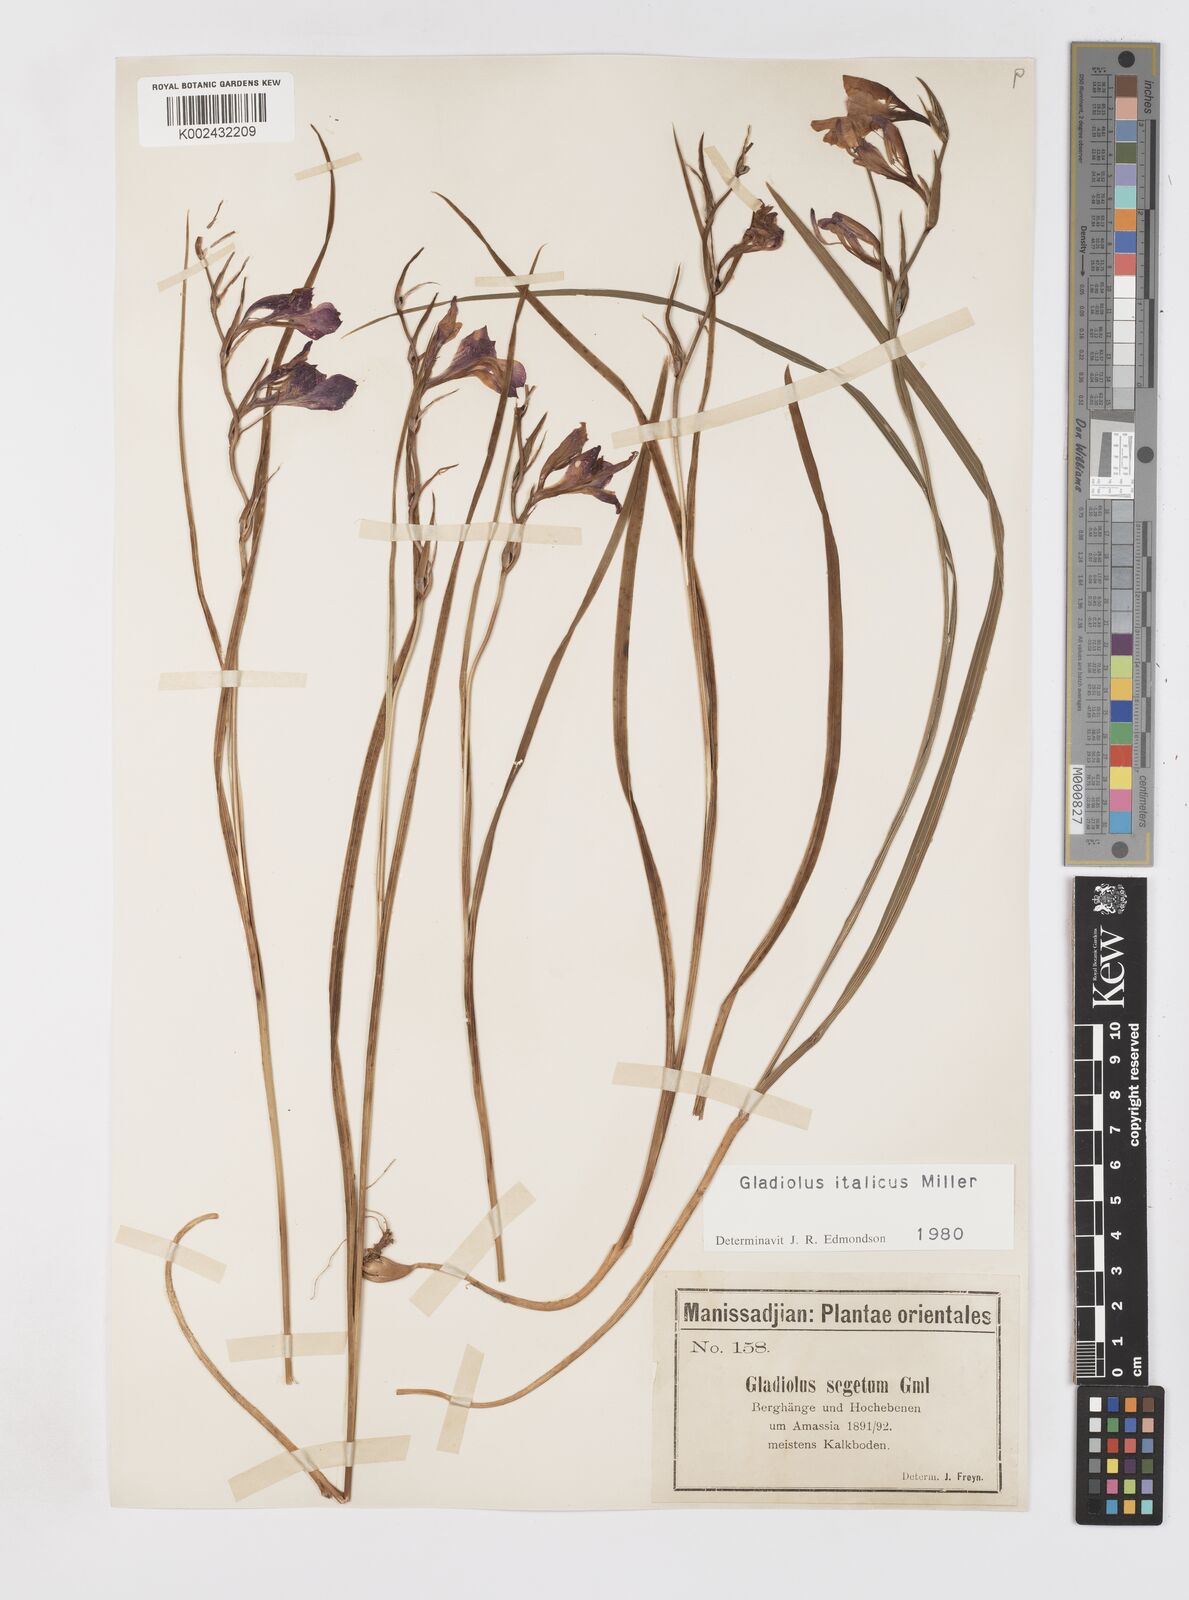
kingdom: Plantae
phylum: Tracheophyta
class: Liliopsida
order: Asparagales
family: Iridaceae
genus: Gladiolus
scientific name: Gladiolus italicus
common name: Field gladiolus
